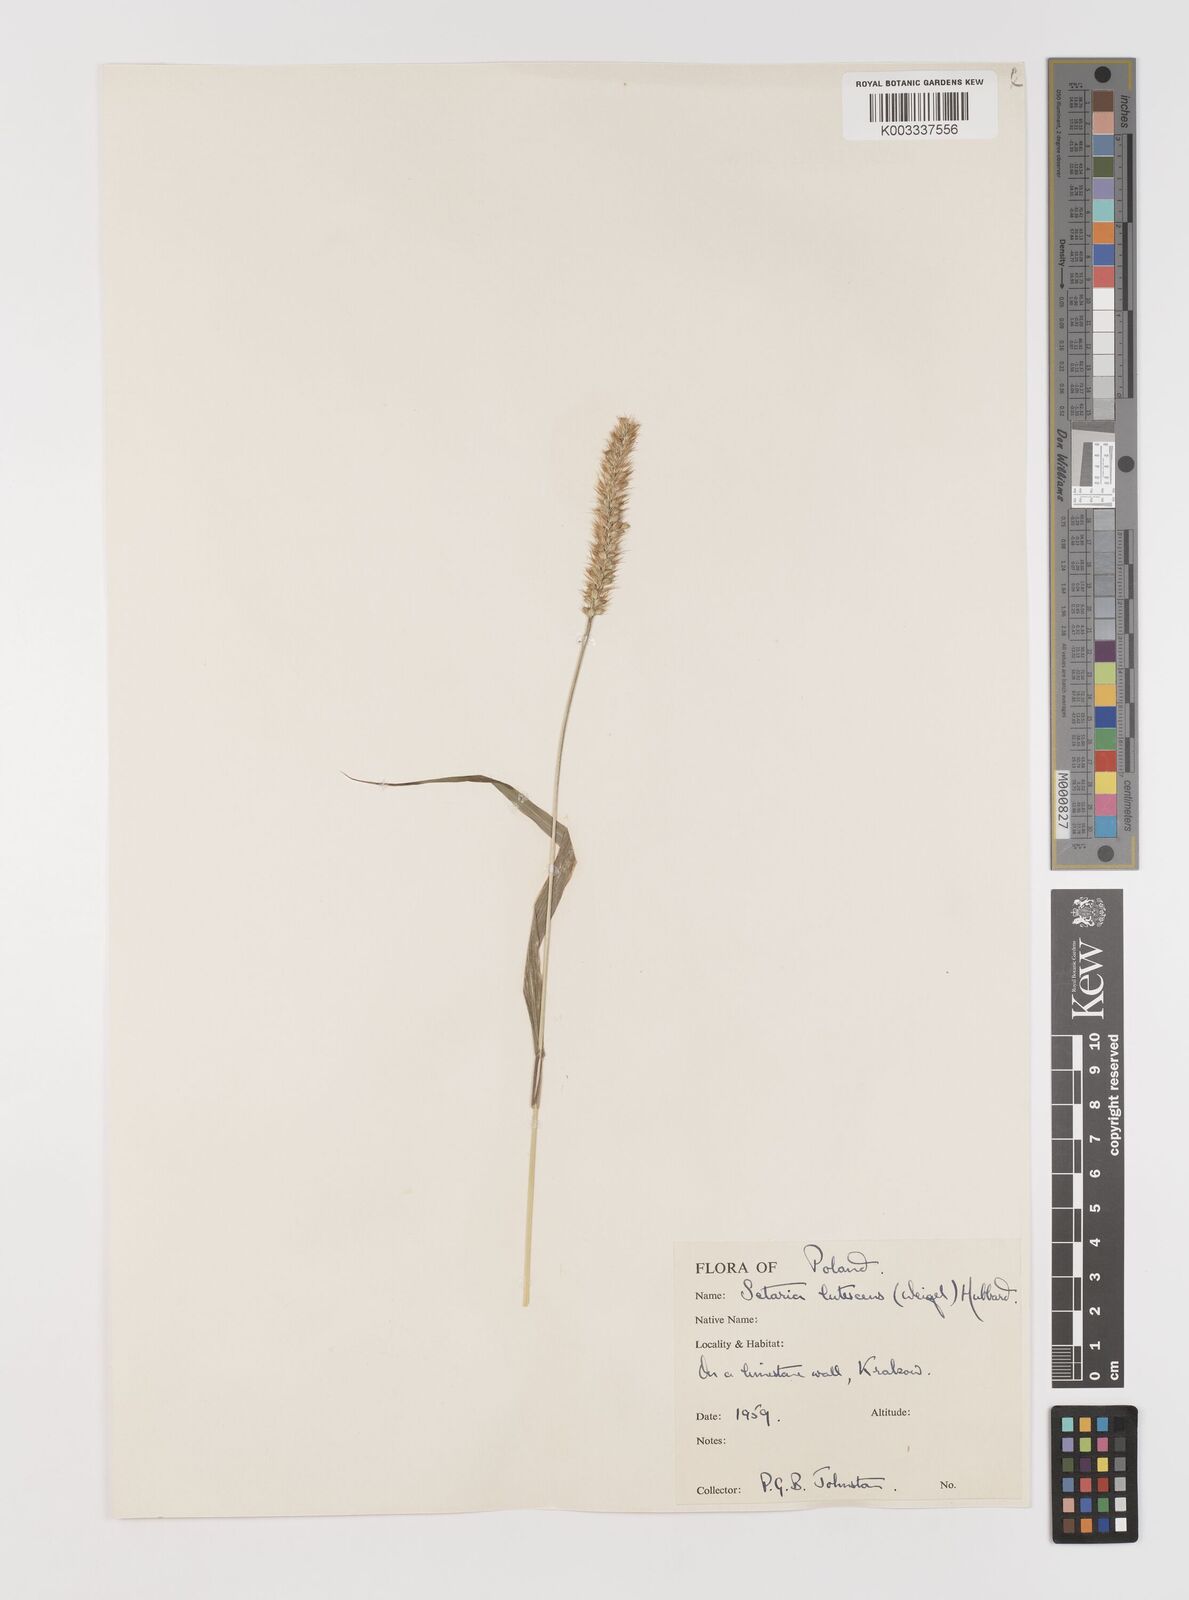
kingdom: Plantae
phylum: Tracheophyta
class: Liliopsida
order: Poales
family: Poaceae
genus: Setaria
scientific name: Setaria pumila
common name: Yellow bristle-grass
